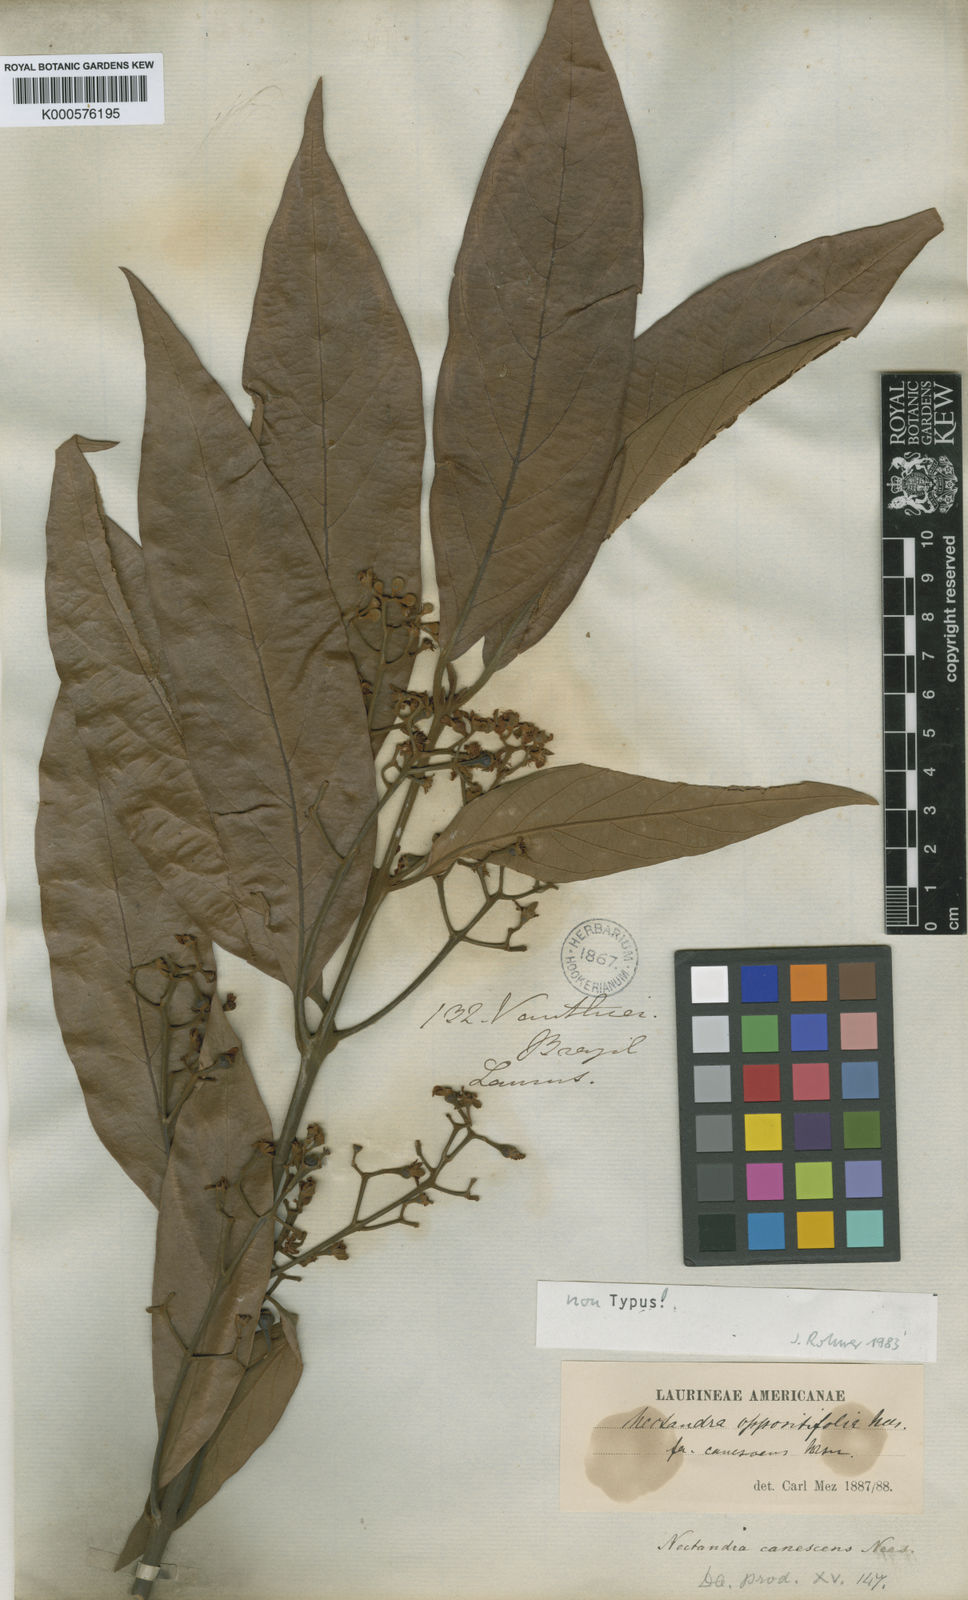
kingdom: Plantae
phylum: Tracheophyta
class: Magnoliopsida
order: Laurales
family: Lauraceae
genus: Nectandra
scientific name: Nectandra oppositifolia
